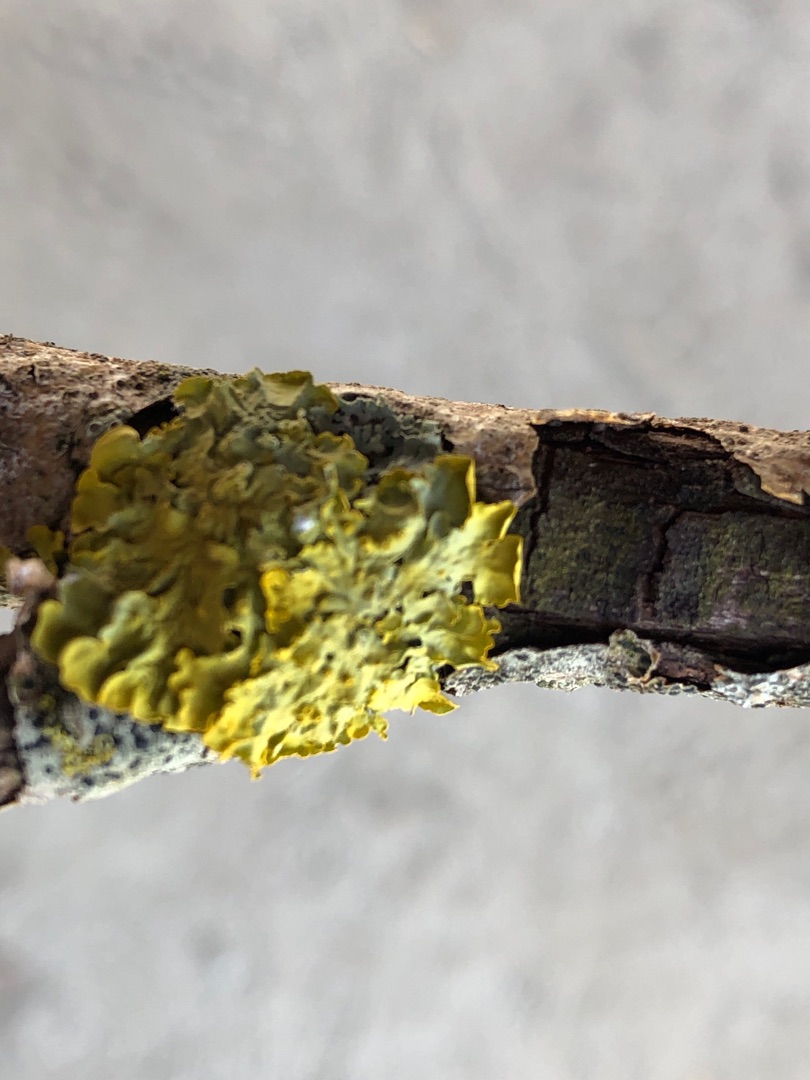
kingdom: Fungi
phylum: Ascomycota
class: Lecanoromycetes
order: Teloschistales
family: Teloschistaceae
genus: Xanthoria
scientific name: Xanthoria parietina
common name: Almindelig væggelav
